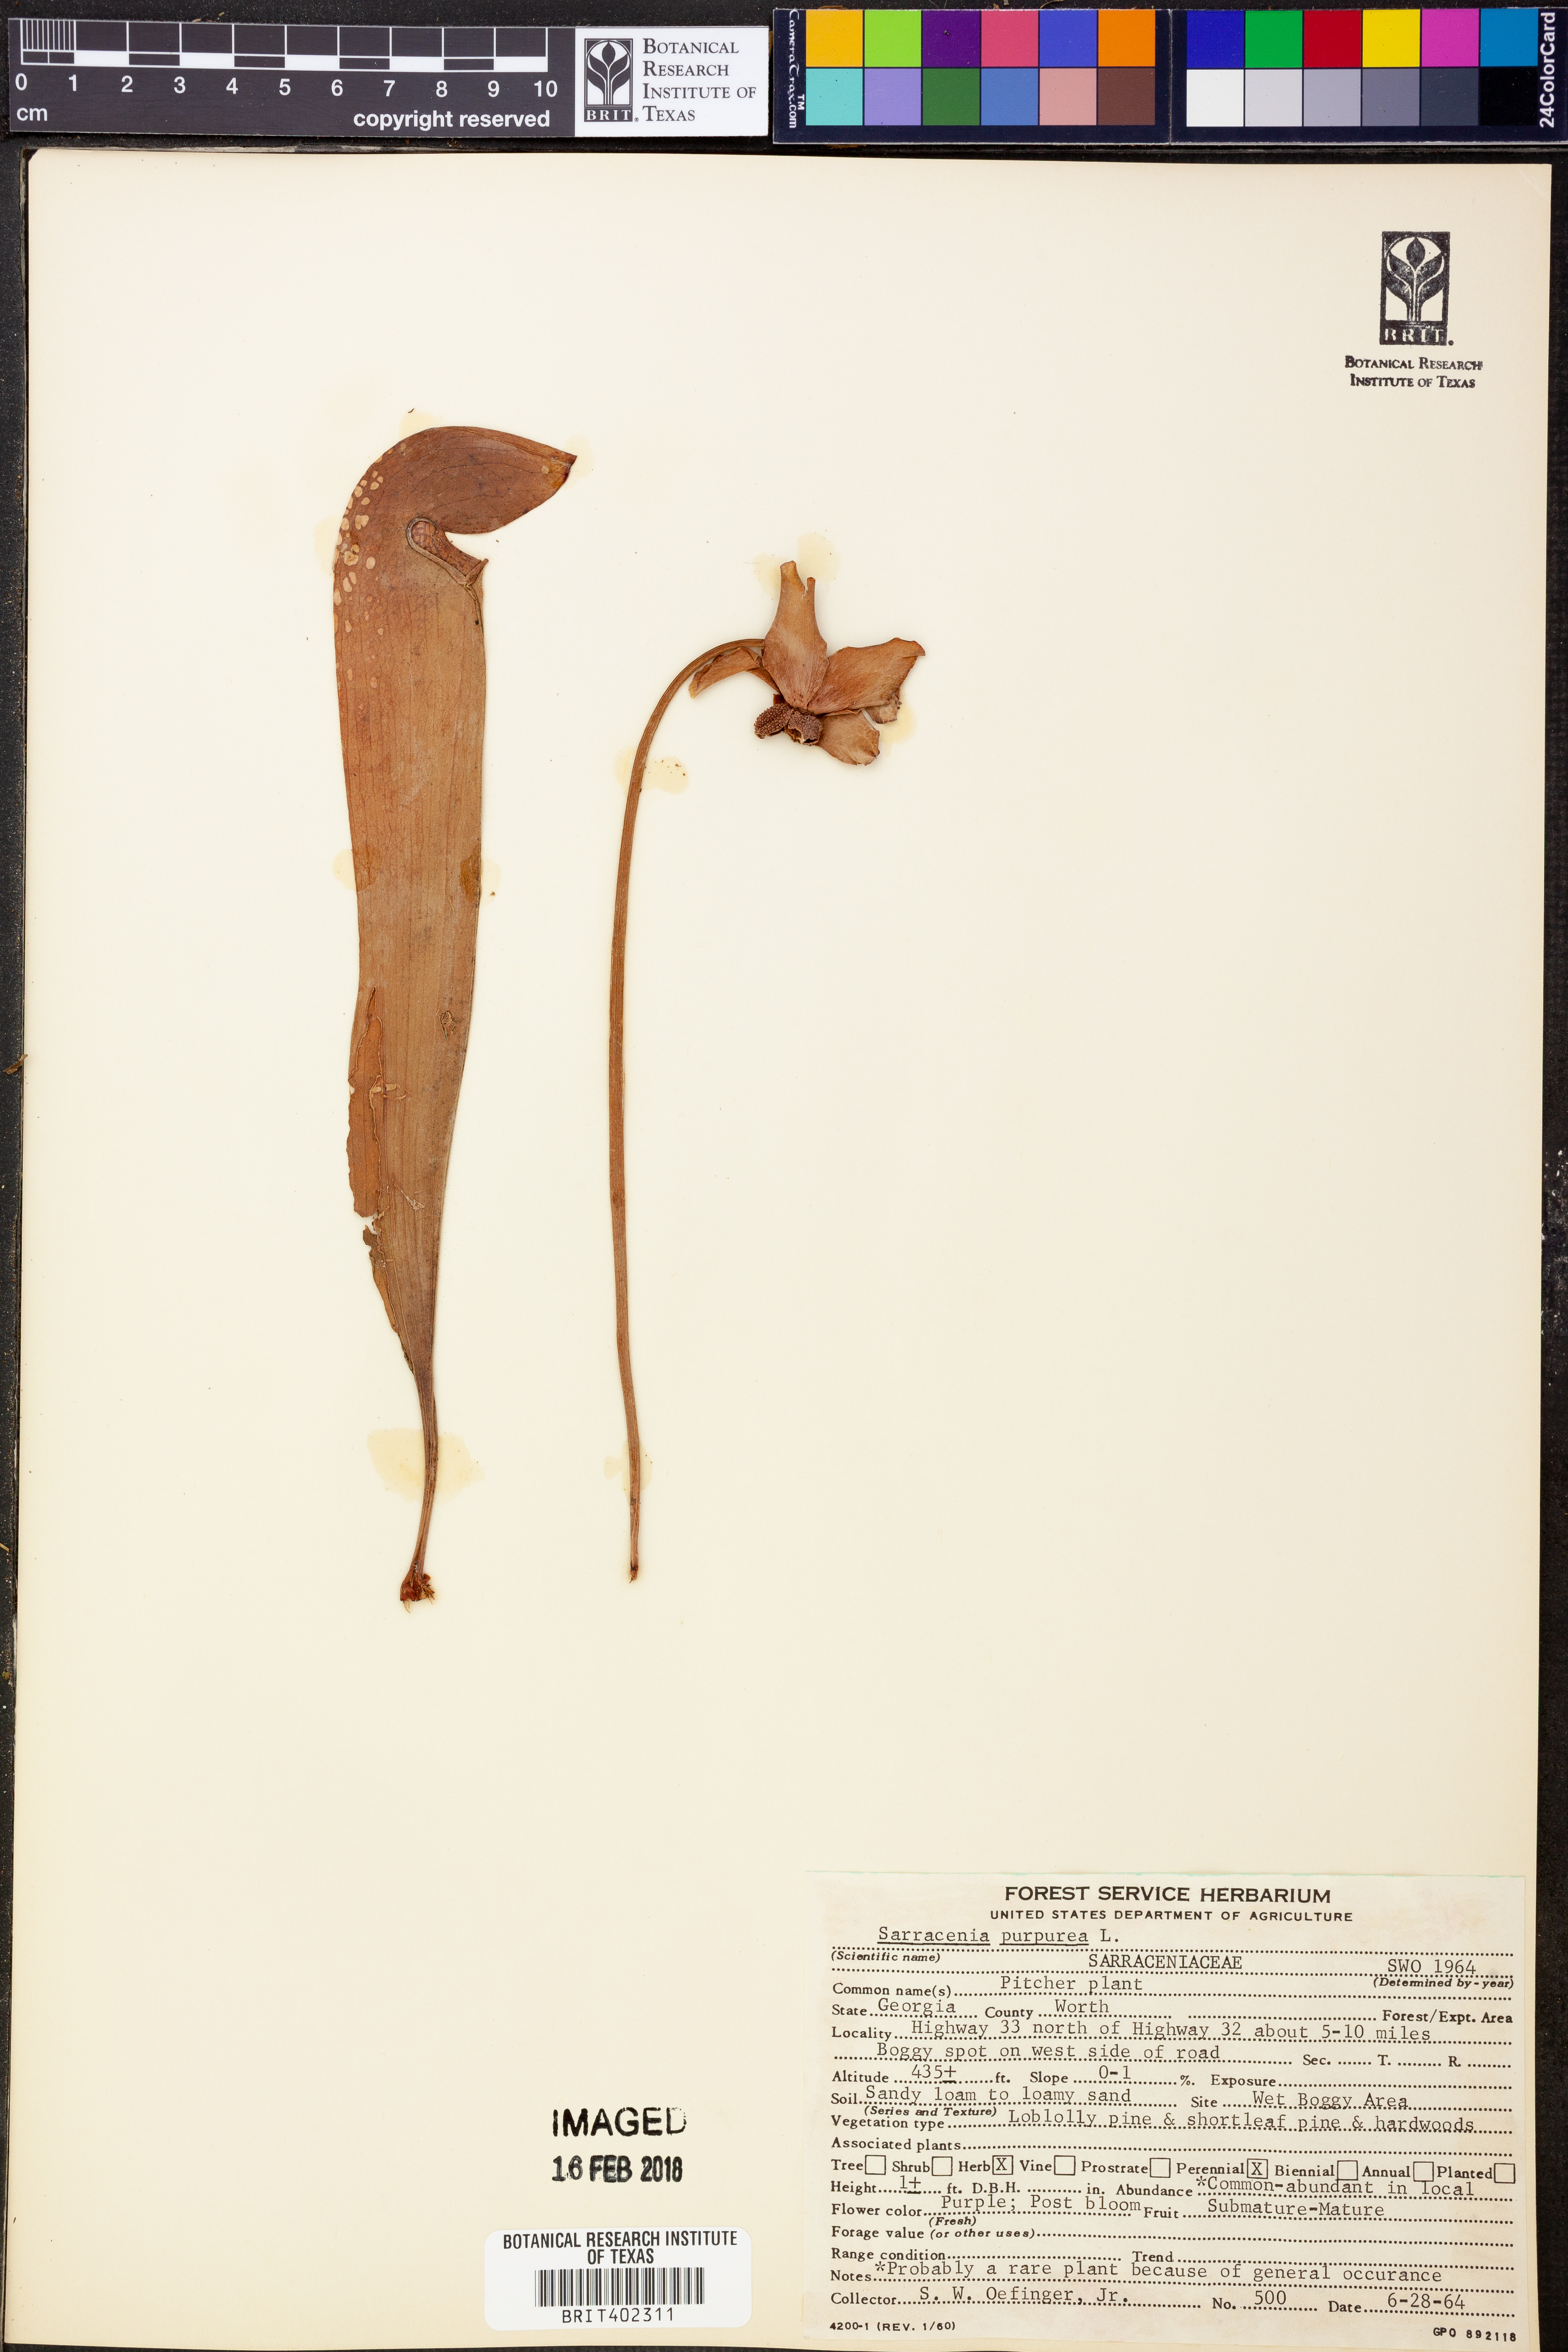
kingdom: Plantae
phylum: Tracheophyta
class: Magnoliopsida
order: Ericales
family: Sarraceniaceae
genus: Sarracenia
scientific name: Sarracenia purpurea
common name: Pitcherplant
